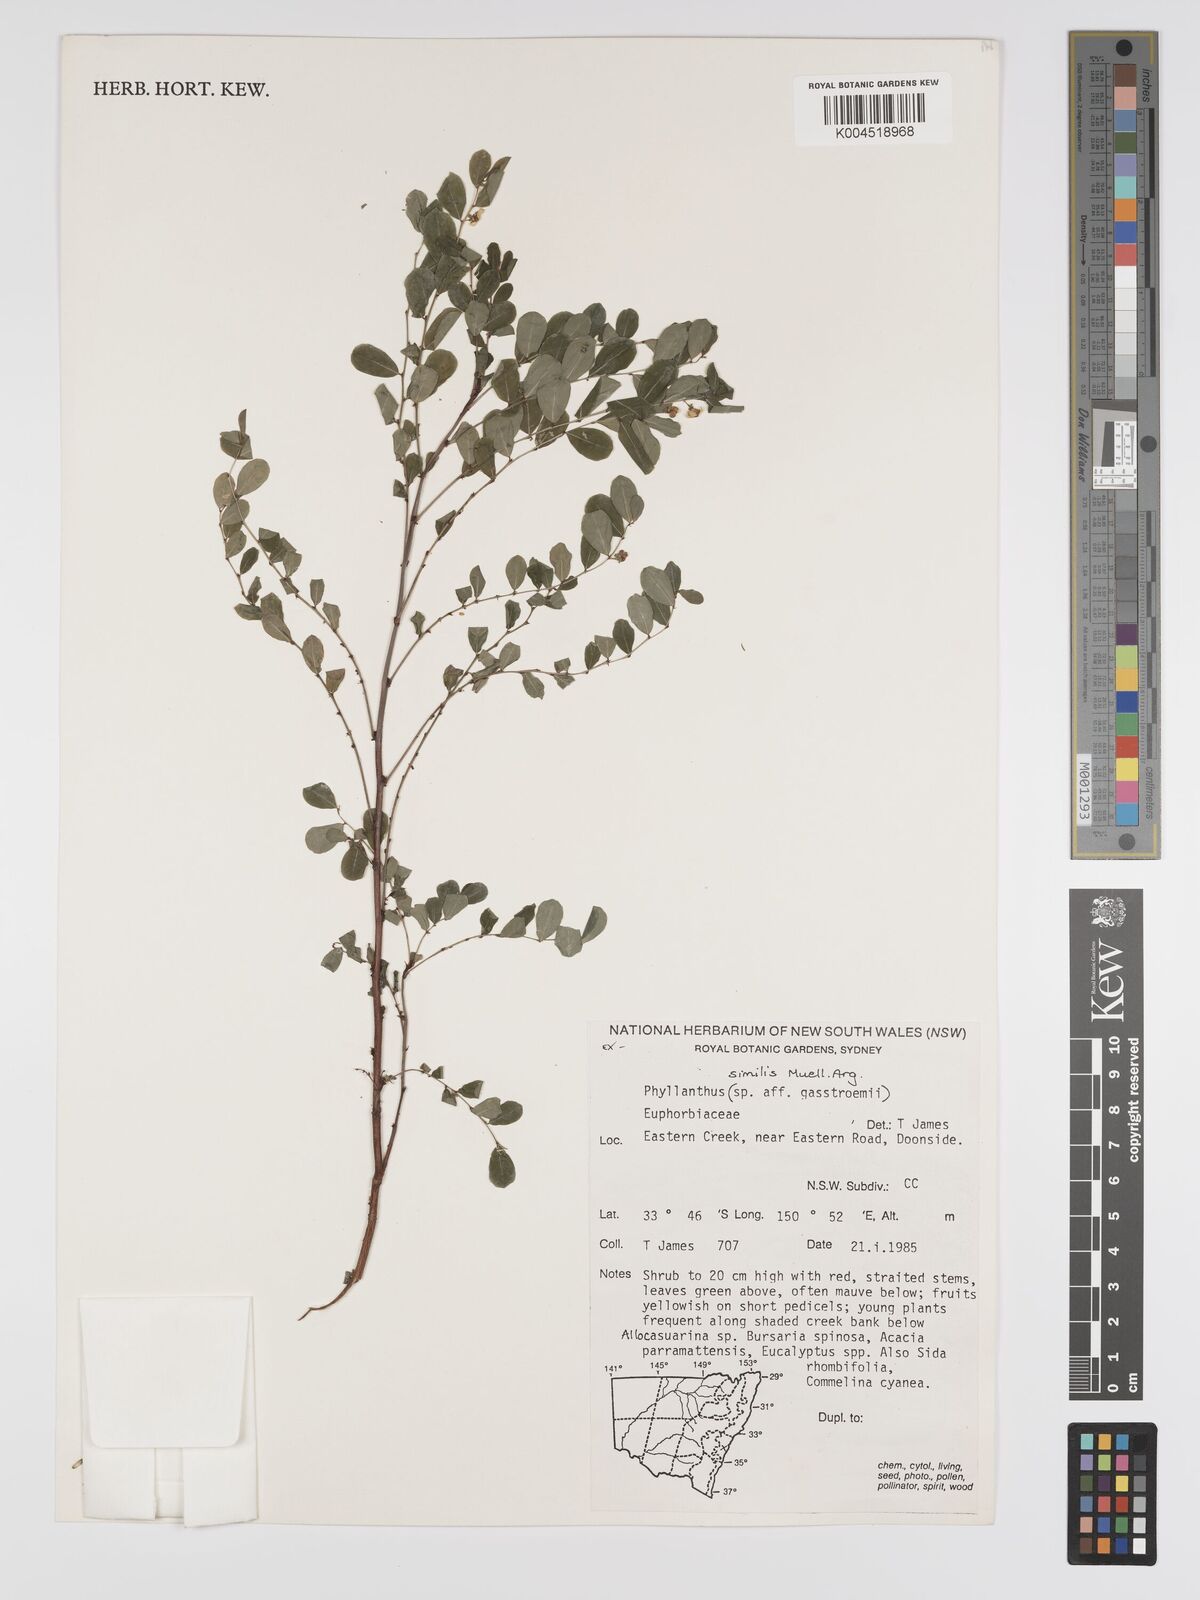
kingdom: Plantae
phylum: Tracheophyta
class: Magnoliopsida
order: Malpighiales
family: Phyllanthaceae
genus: Phyllanthus
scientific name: Phyllanthus similis
